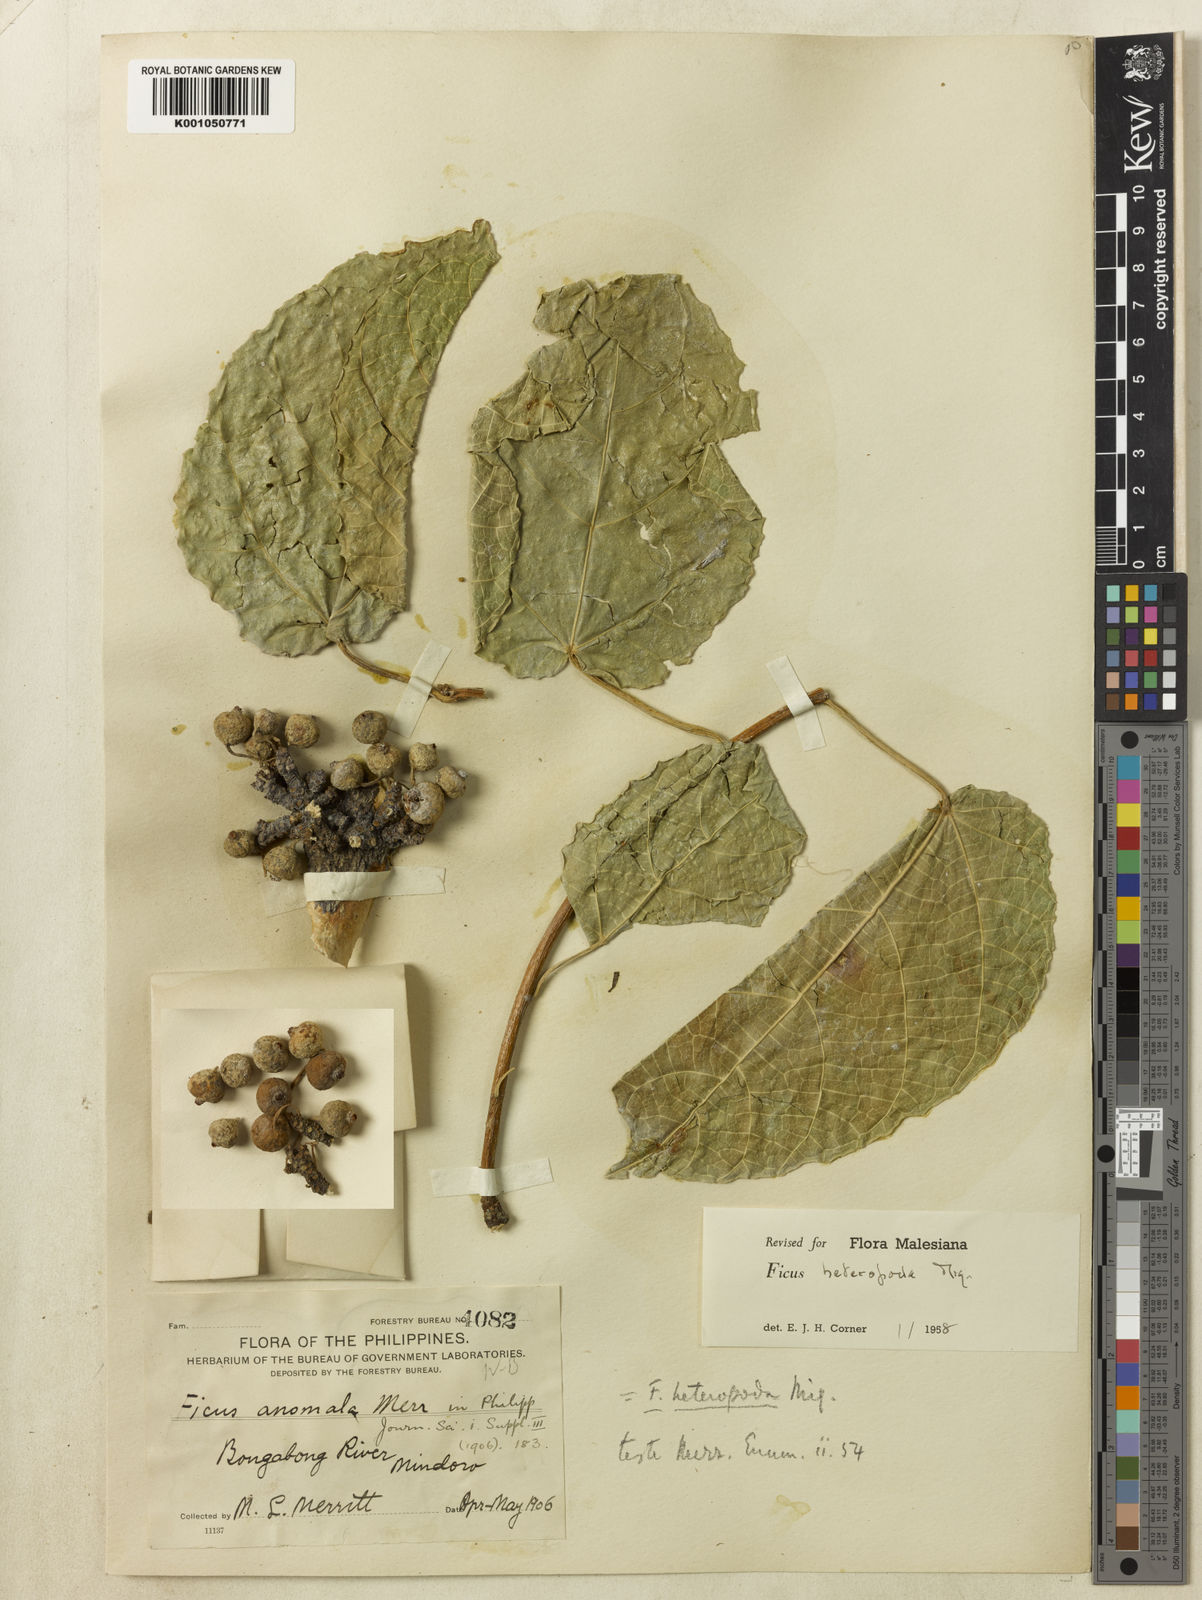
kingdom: Plantae
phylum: Tracheophyta
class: Magnoliopsida
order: Rosales
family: Moraceae
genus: Ficus
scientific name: Ficus heteropoda
